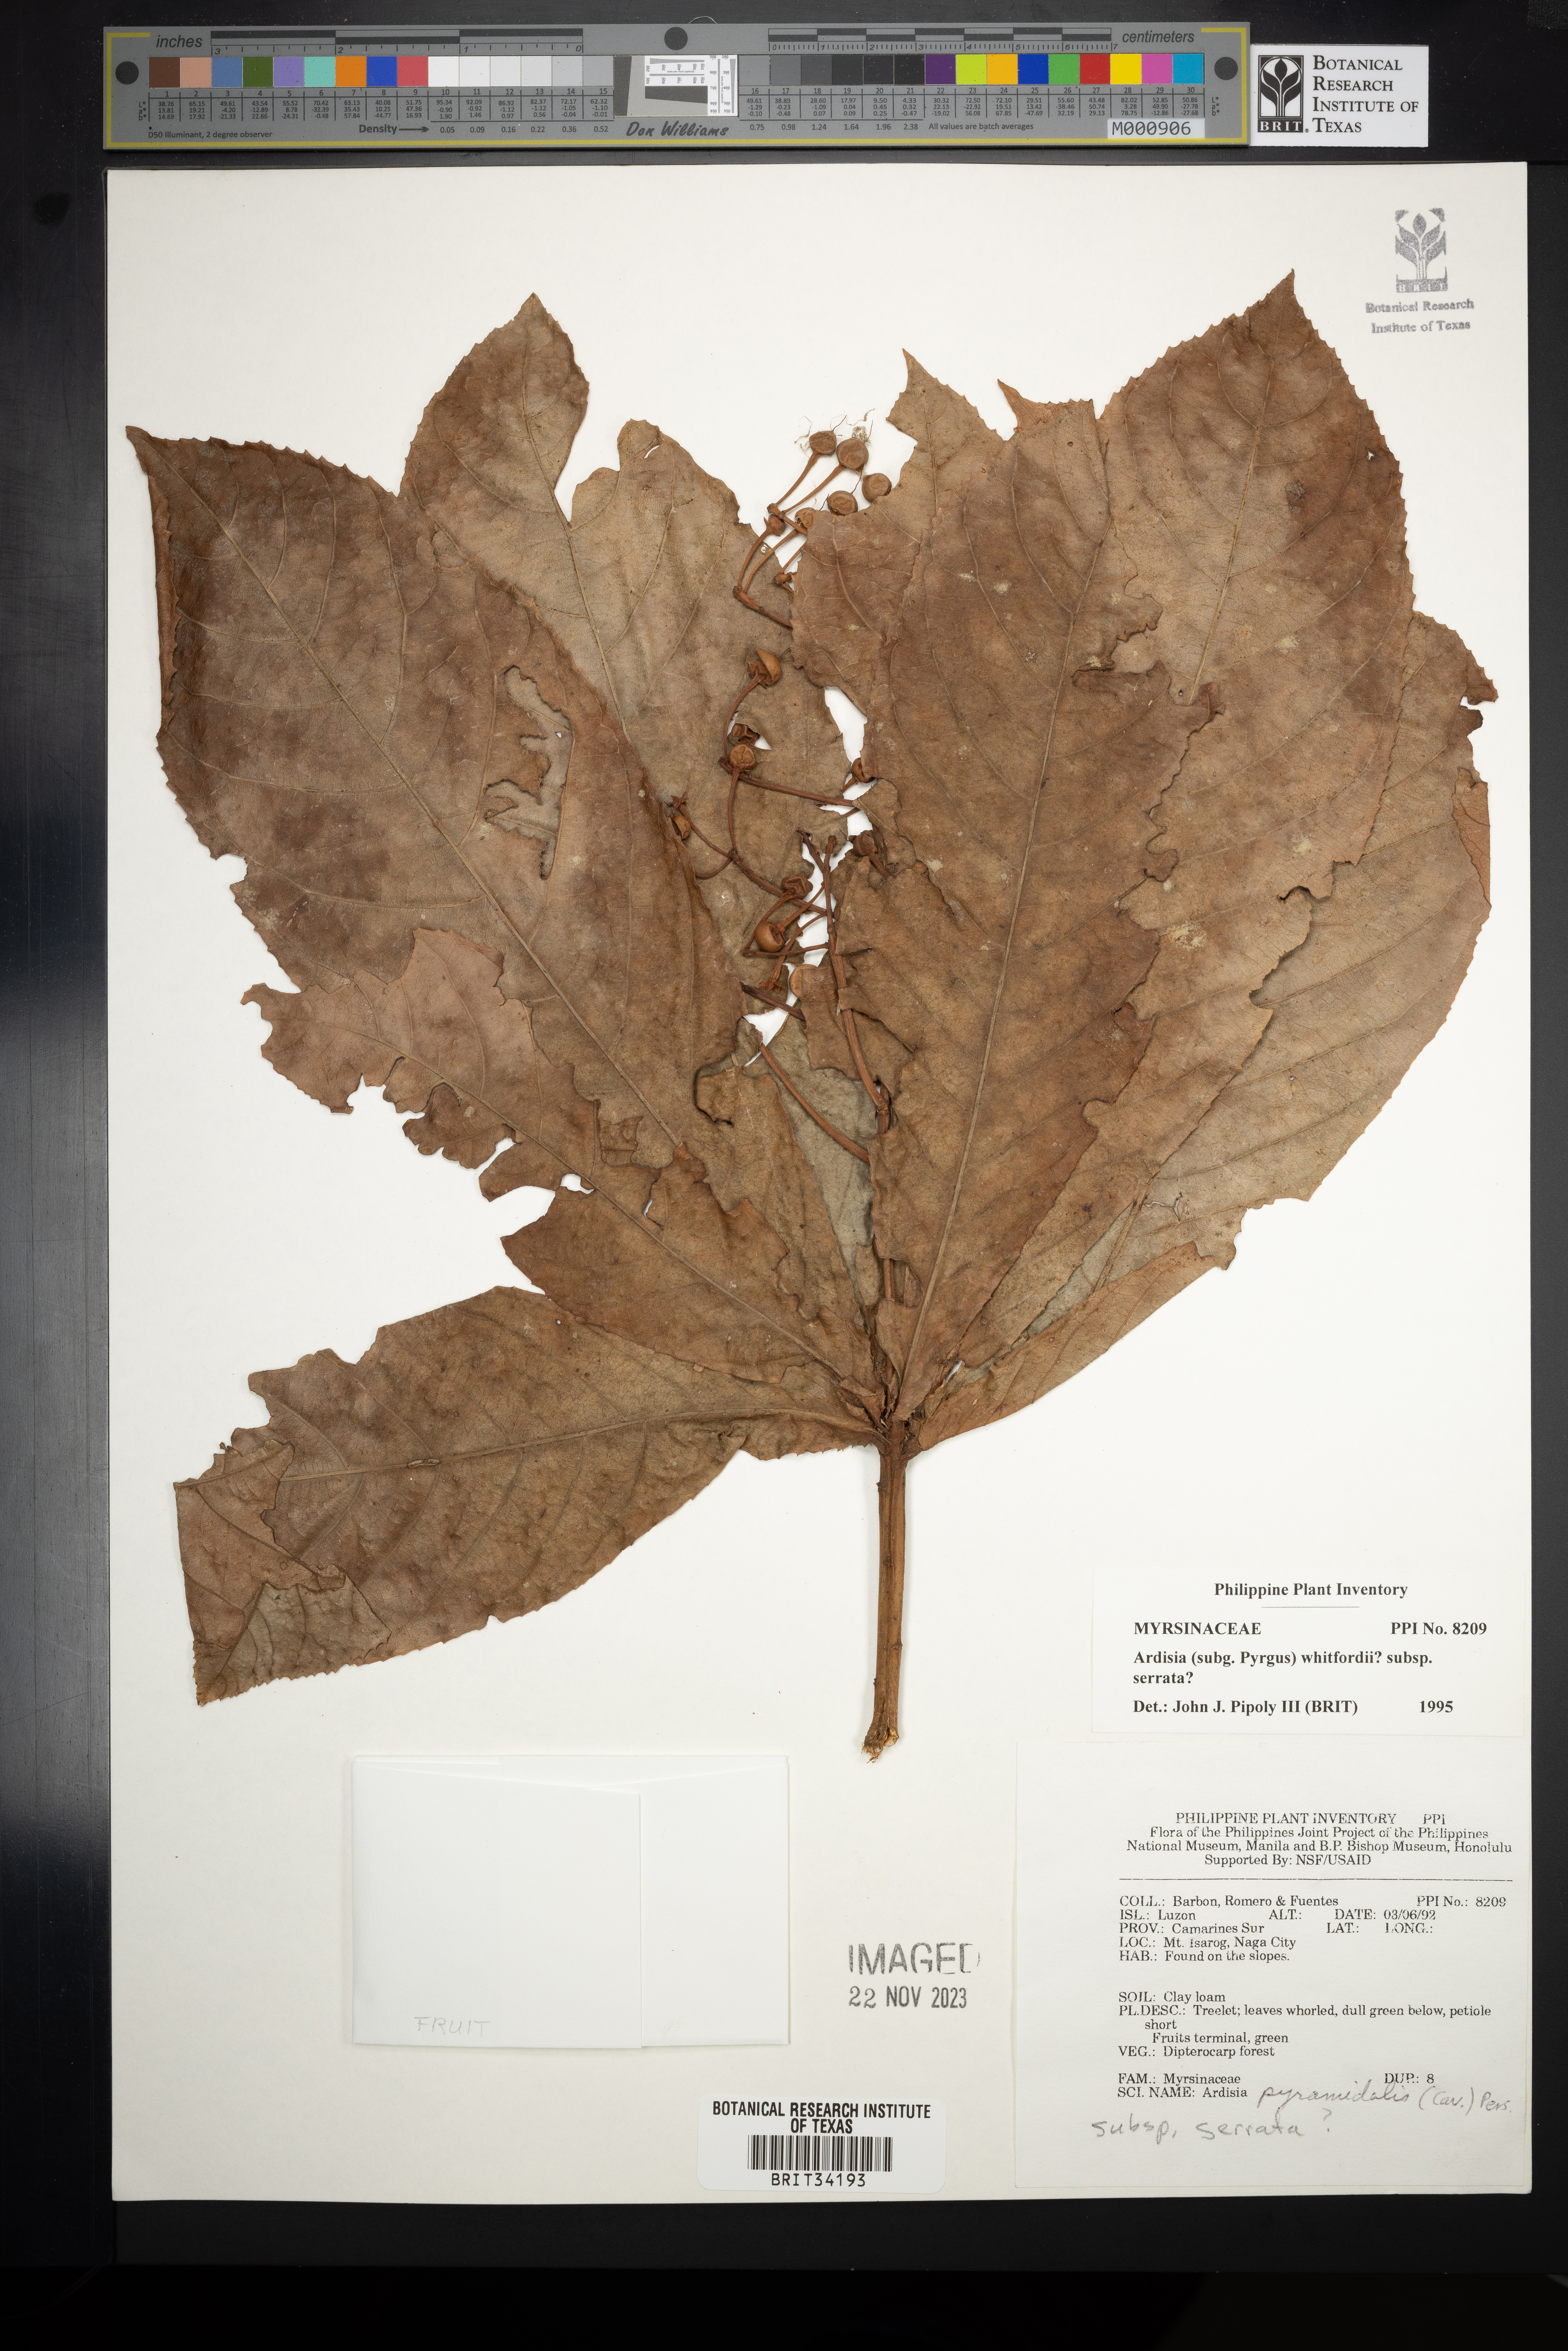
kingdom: Plantae
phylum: Tracheophyta
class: Magnoliopsida
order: Ericales
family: Primulaceae
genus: Ardisia
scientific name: Ardisia serrata
